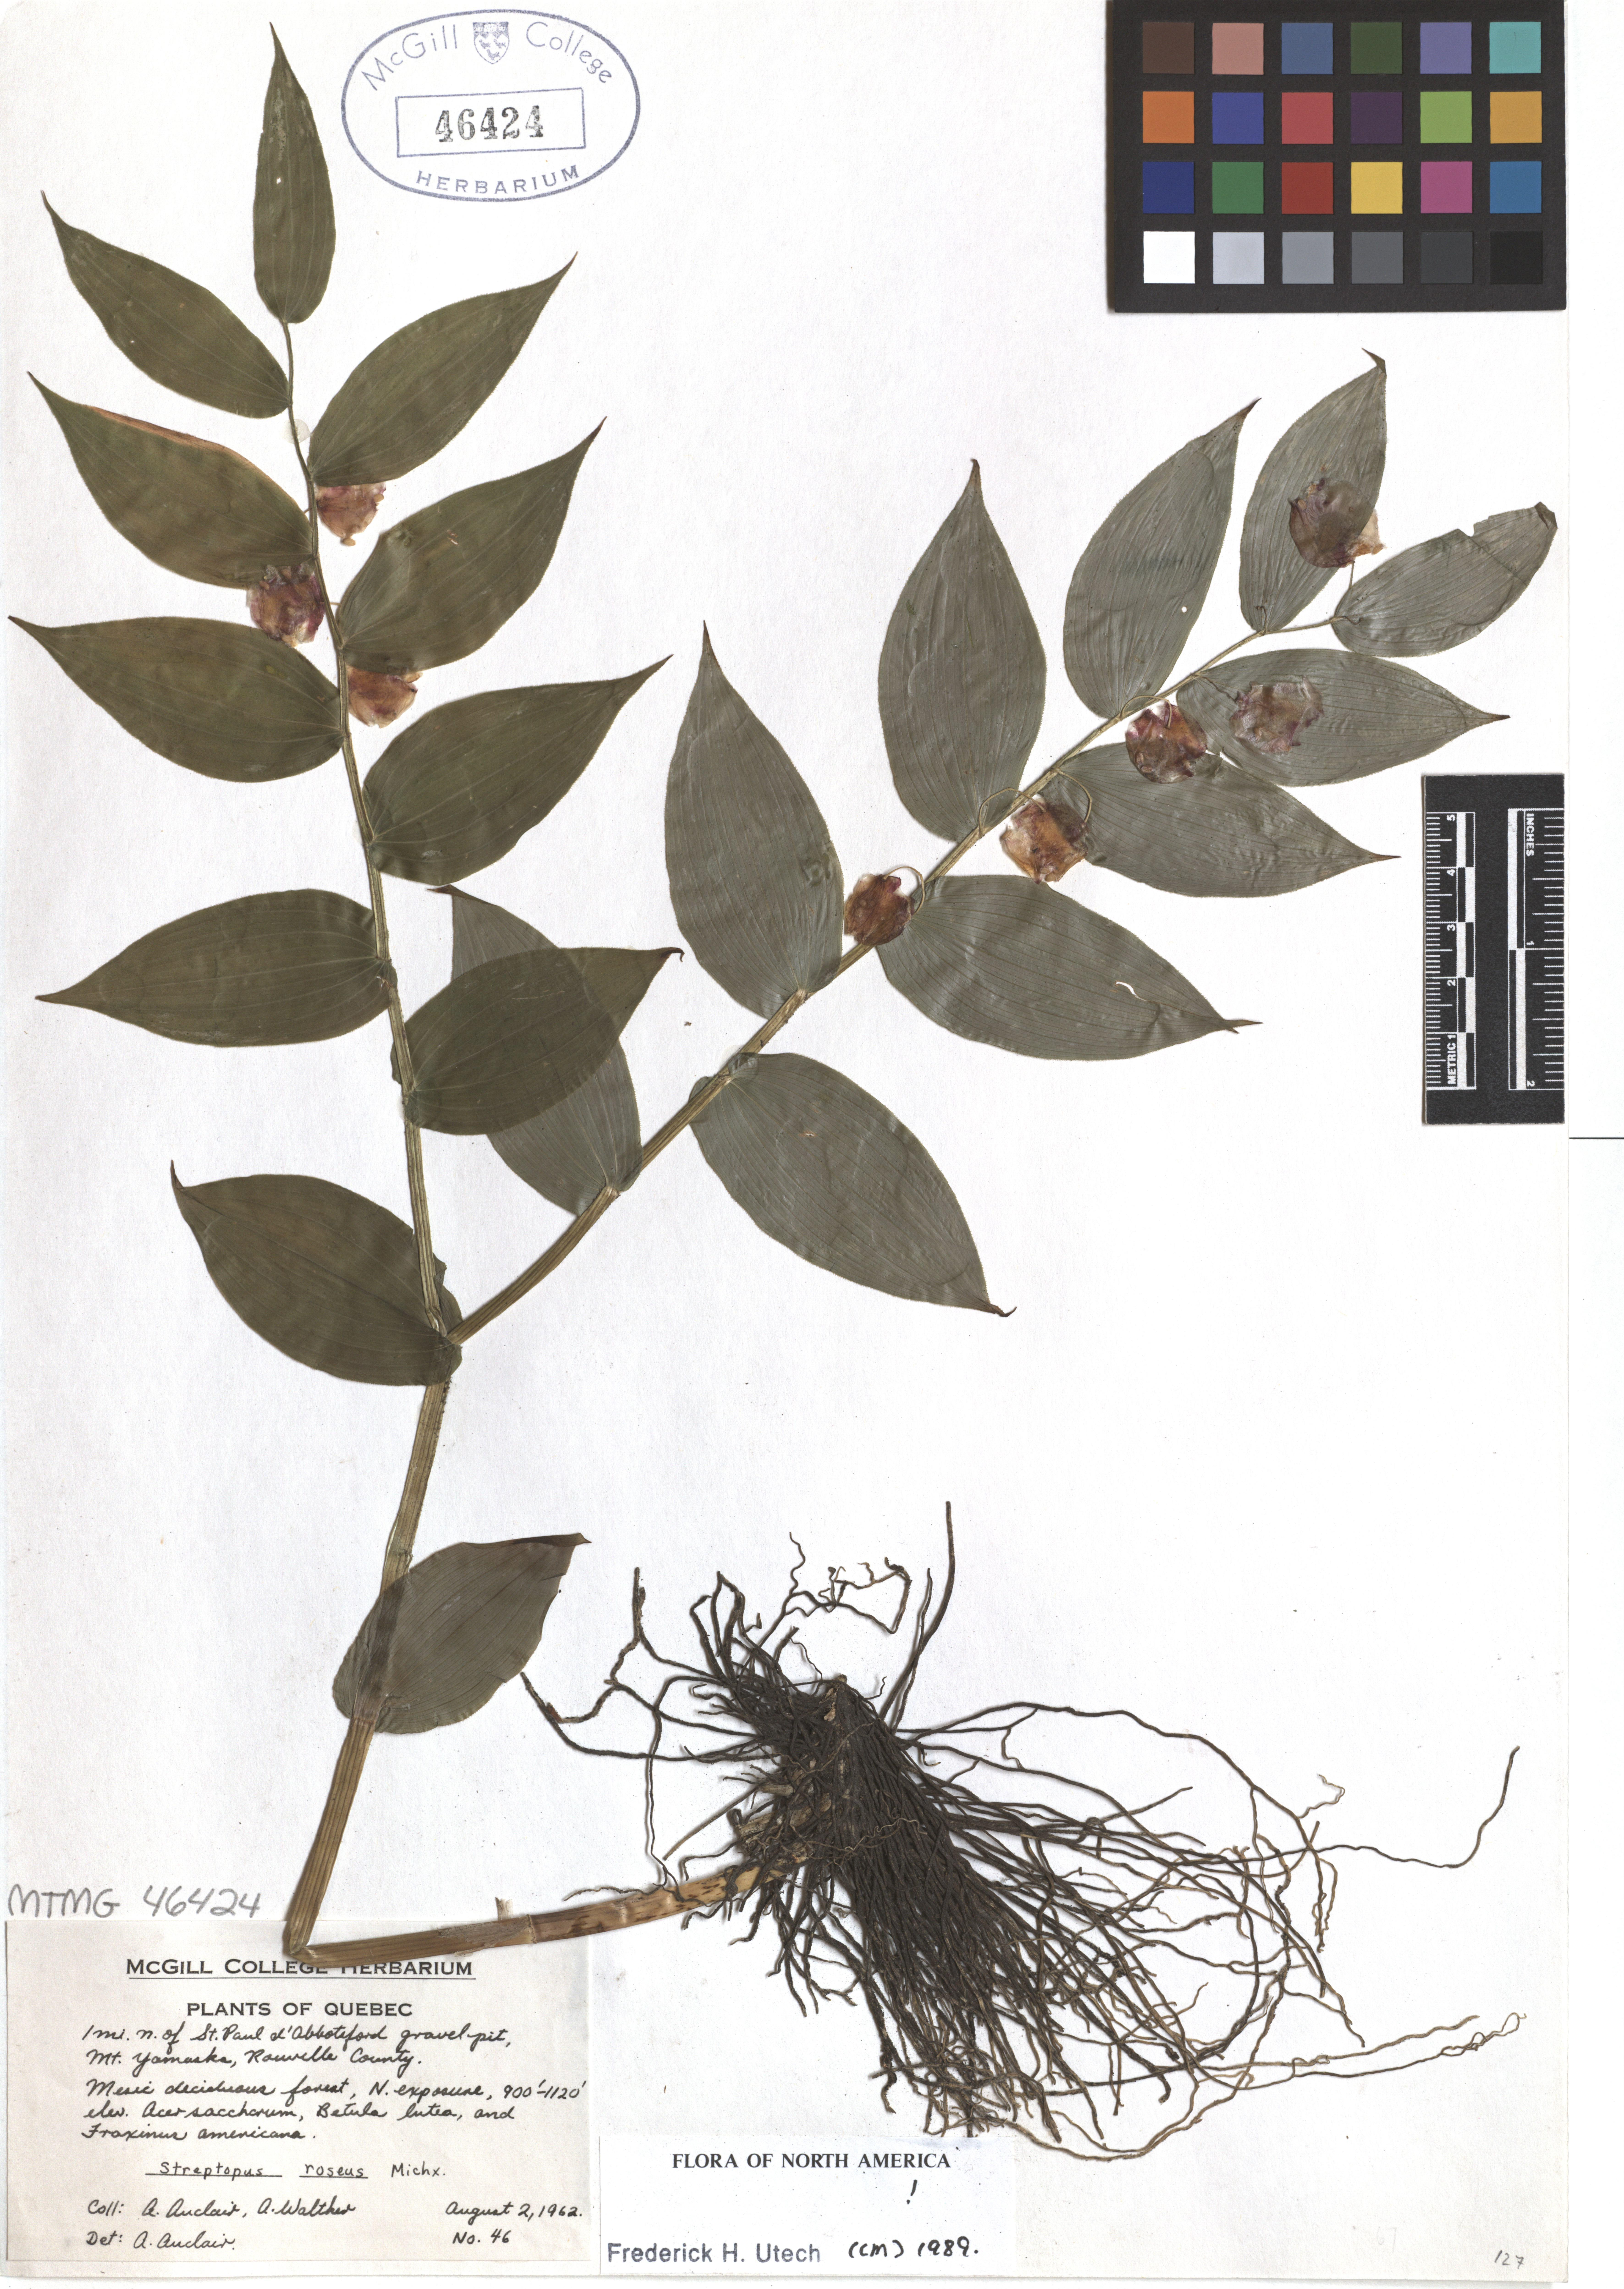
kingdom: Plantae
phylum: Tracheophyta
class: Liliopsida
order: Liliales
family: Liliaceae
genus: Streptopus
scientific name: Streptopus lanceolatus
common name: Rose mandarin
